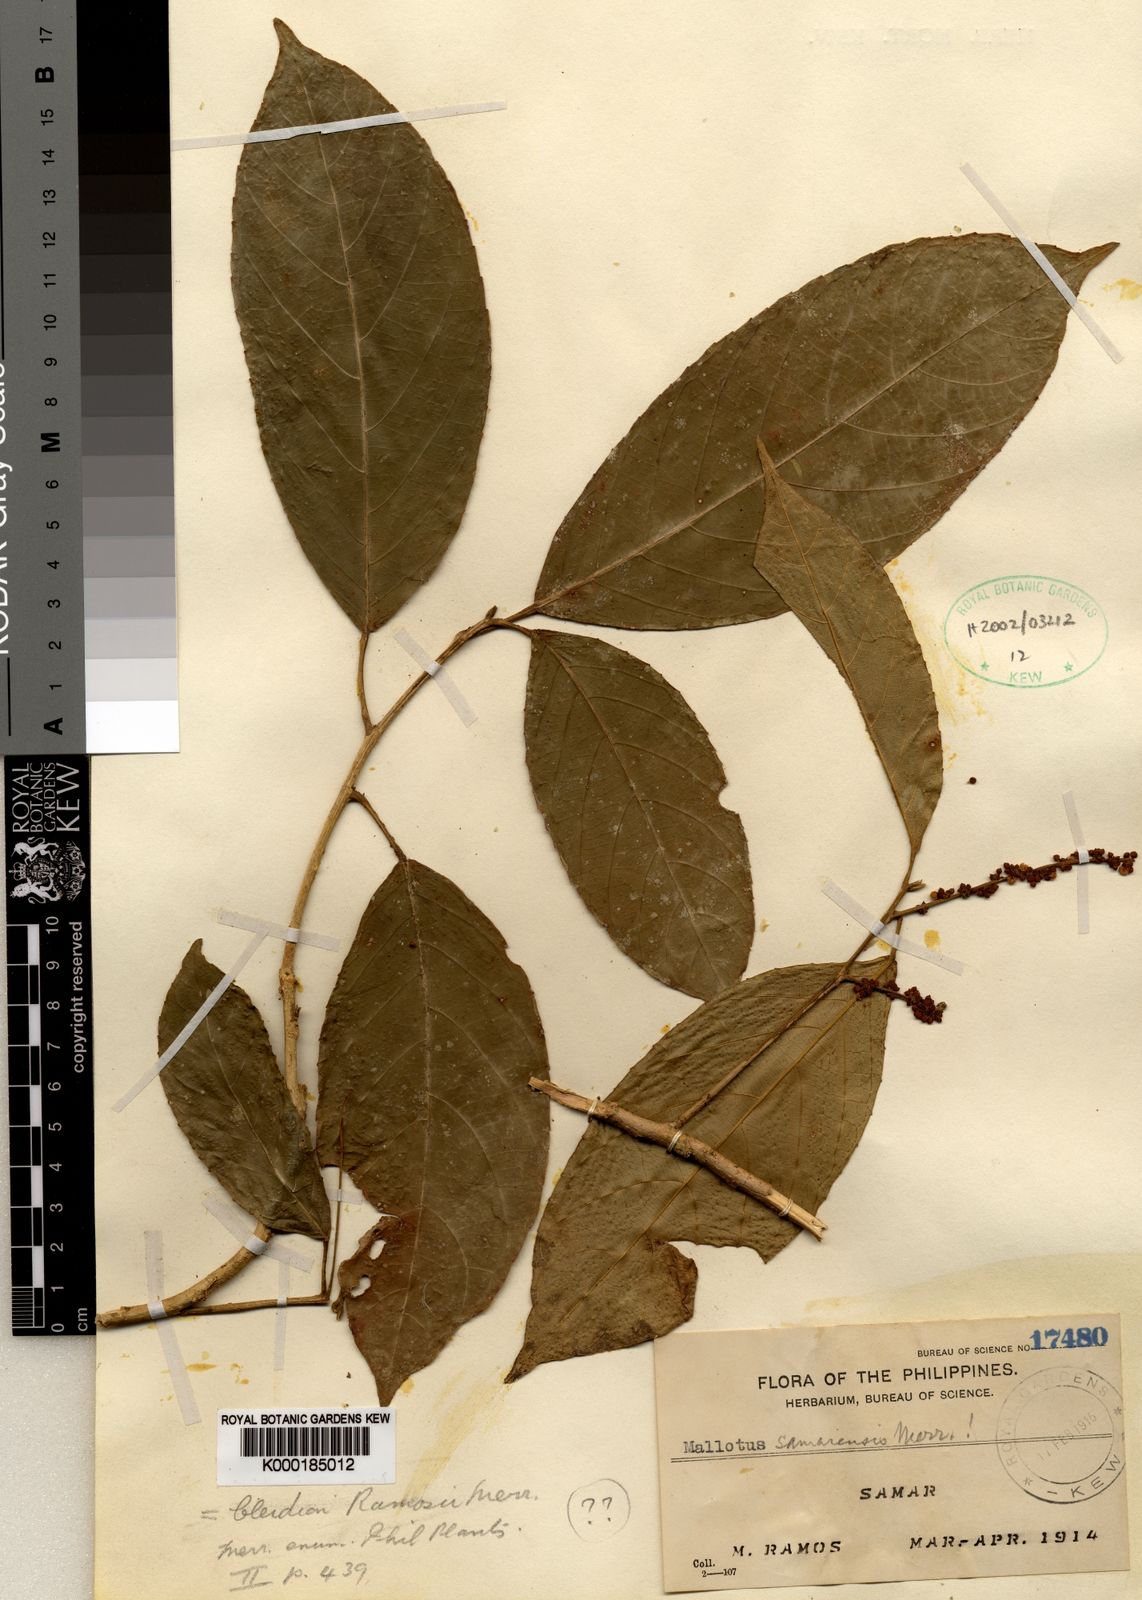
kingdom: Plantae
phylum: Tracheophyta
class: Magnoliopsida
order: Malpighiales
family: Euphorbiaceae
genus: Cleidion
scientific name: Cleidion ramosii
